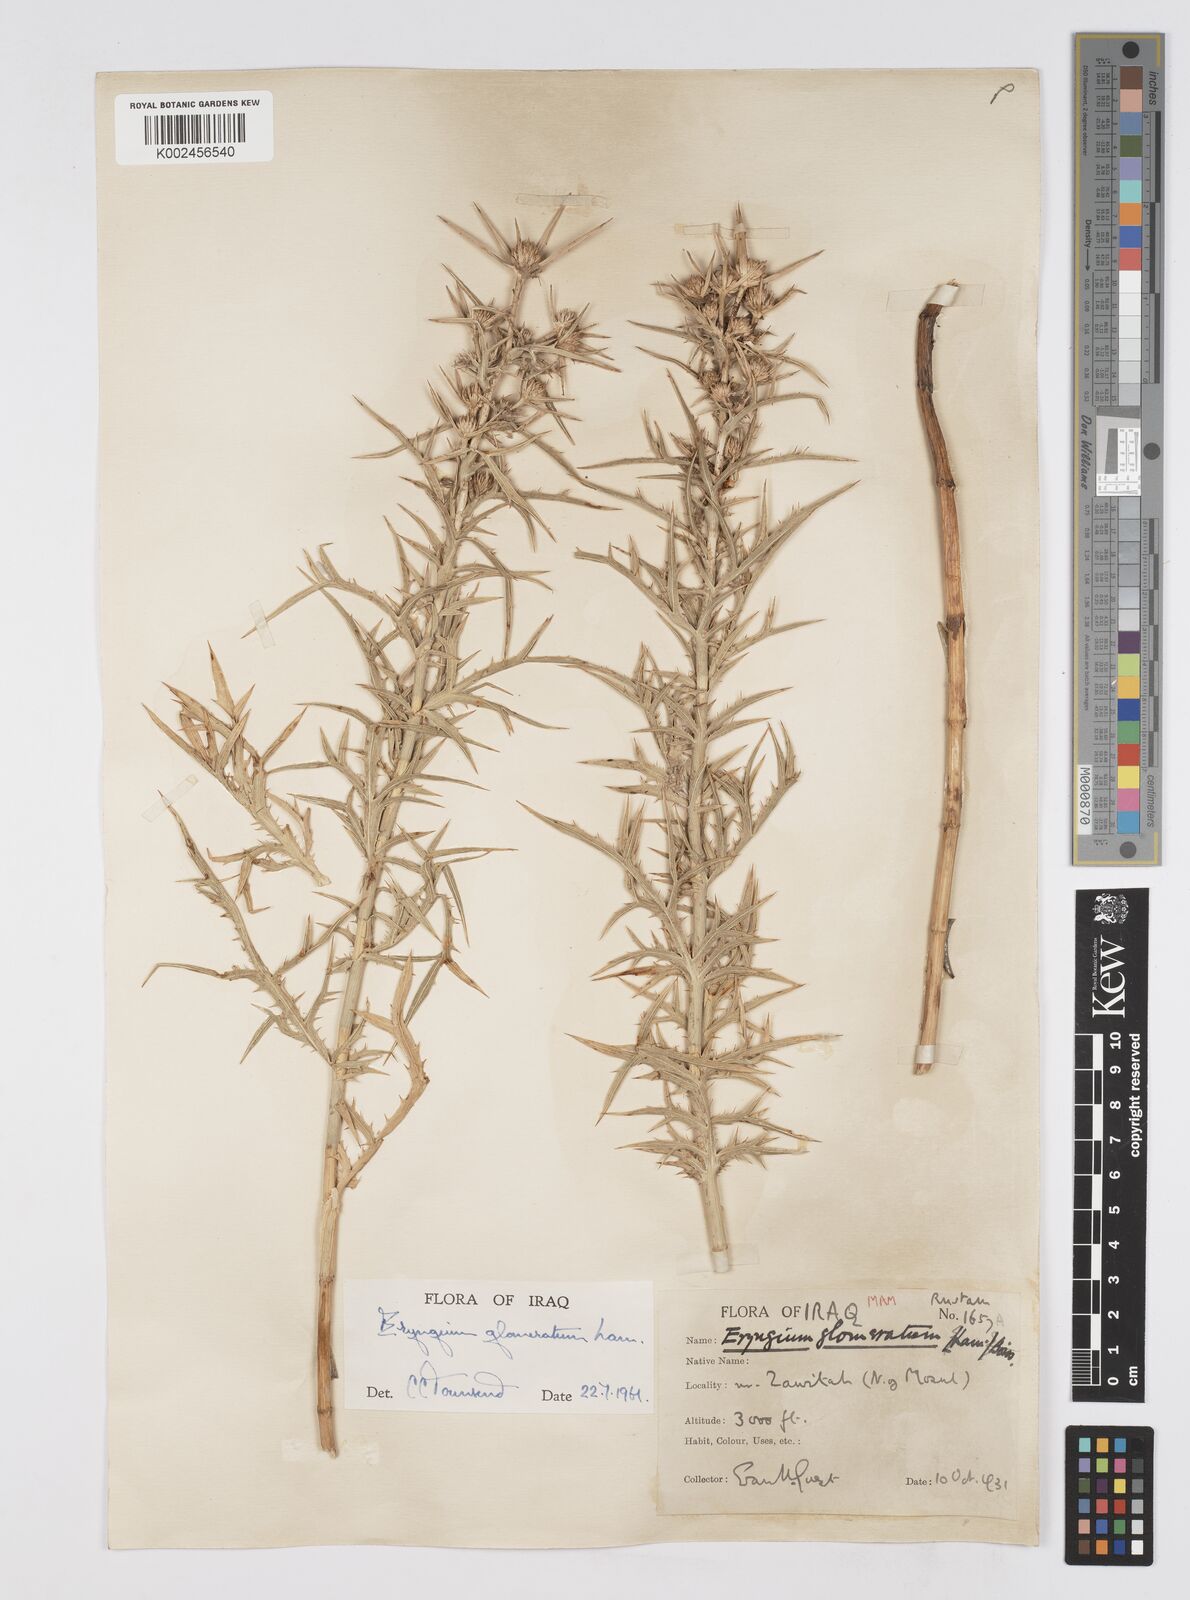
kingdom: Plantae
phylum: Tracheophyta
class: Magnoliopsida
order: Apiales
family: Apiaceae
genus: Eryngium
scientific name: Eryngium glomeratum
